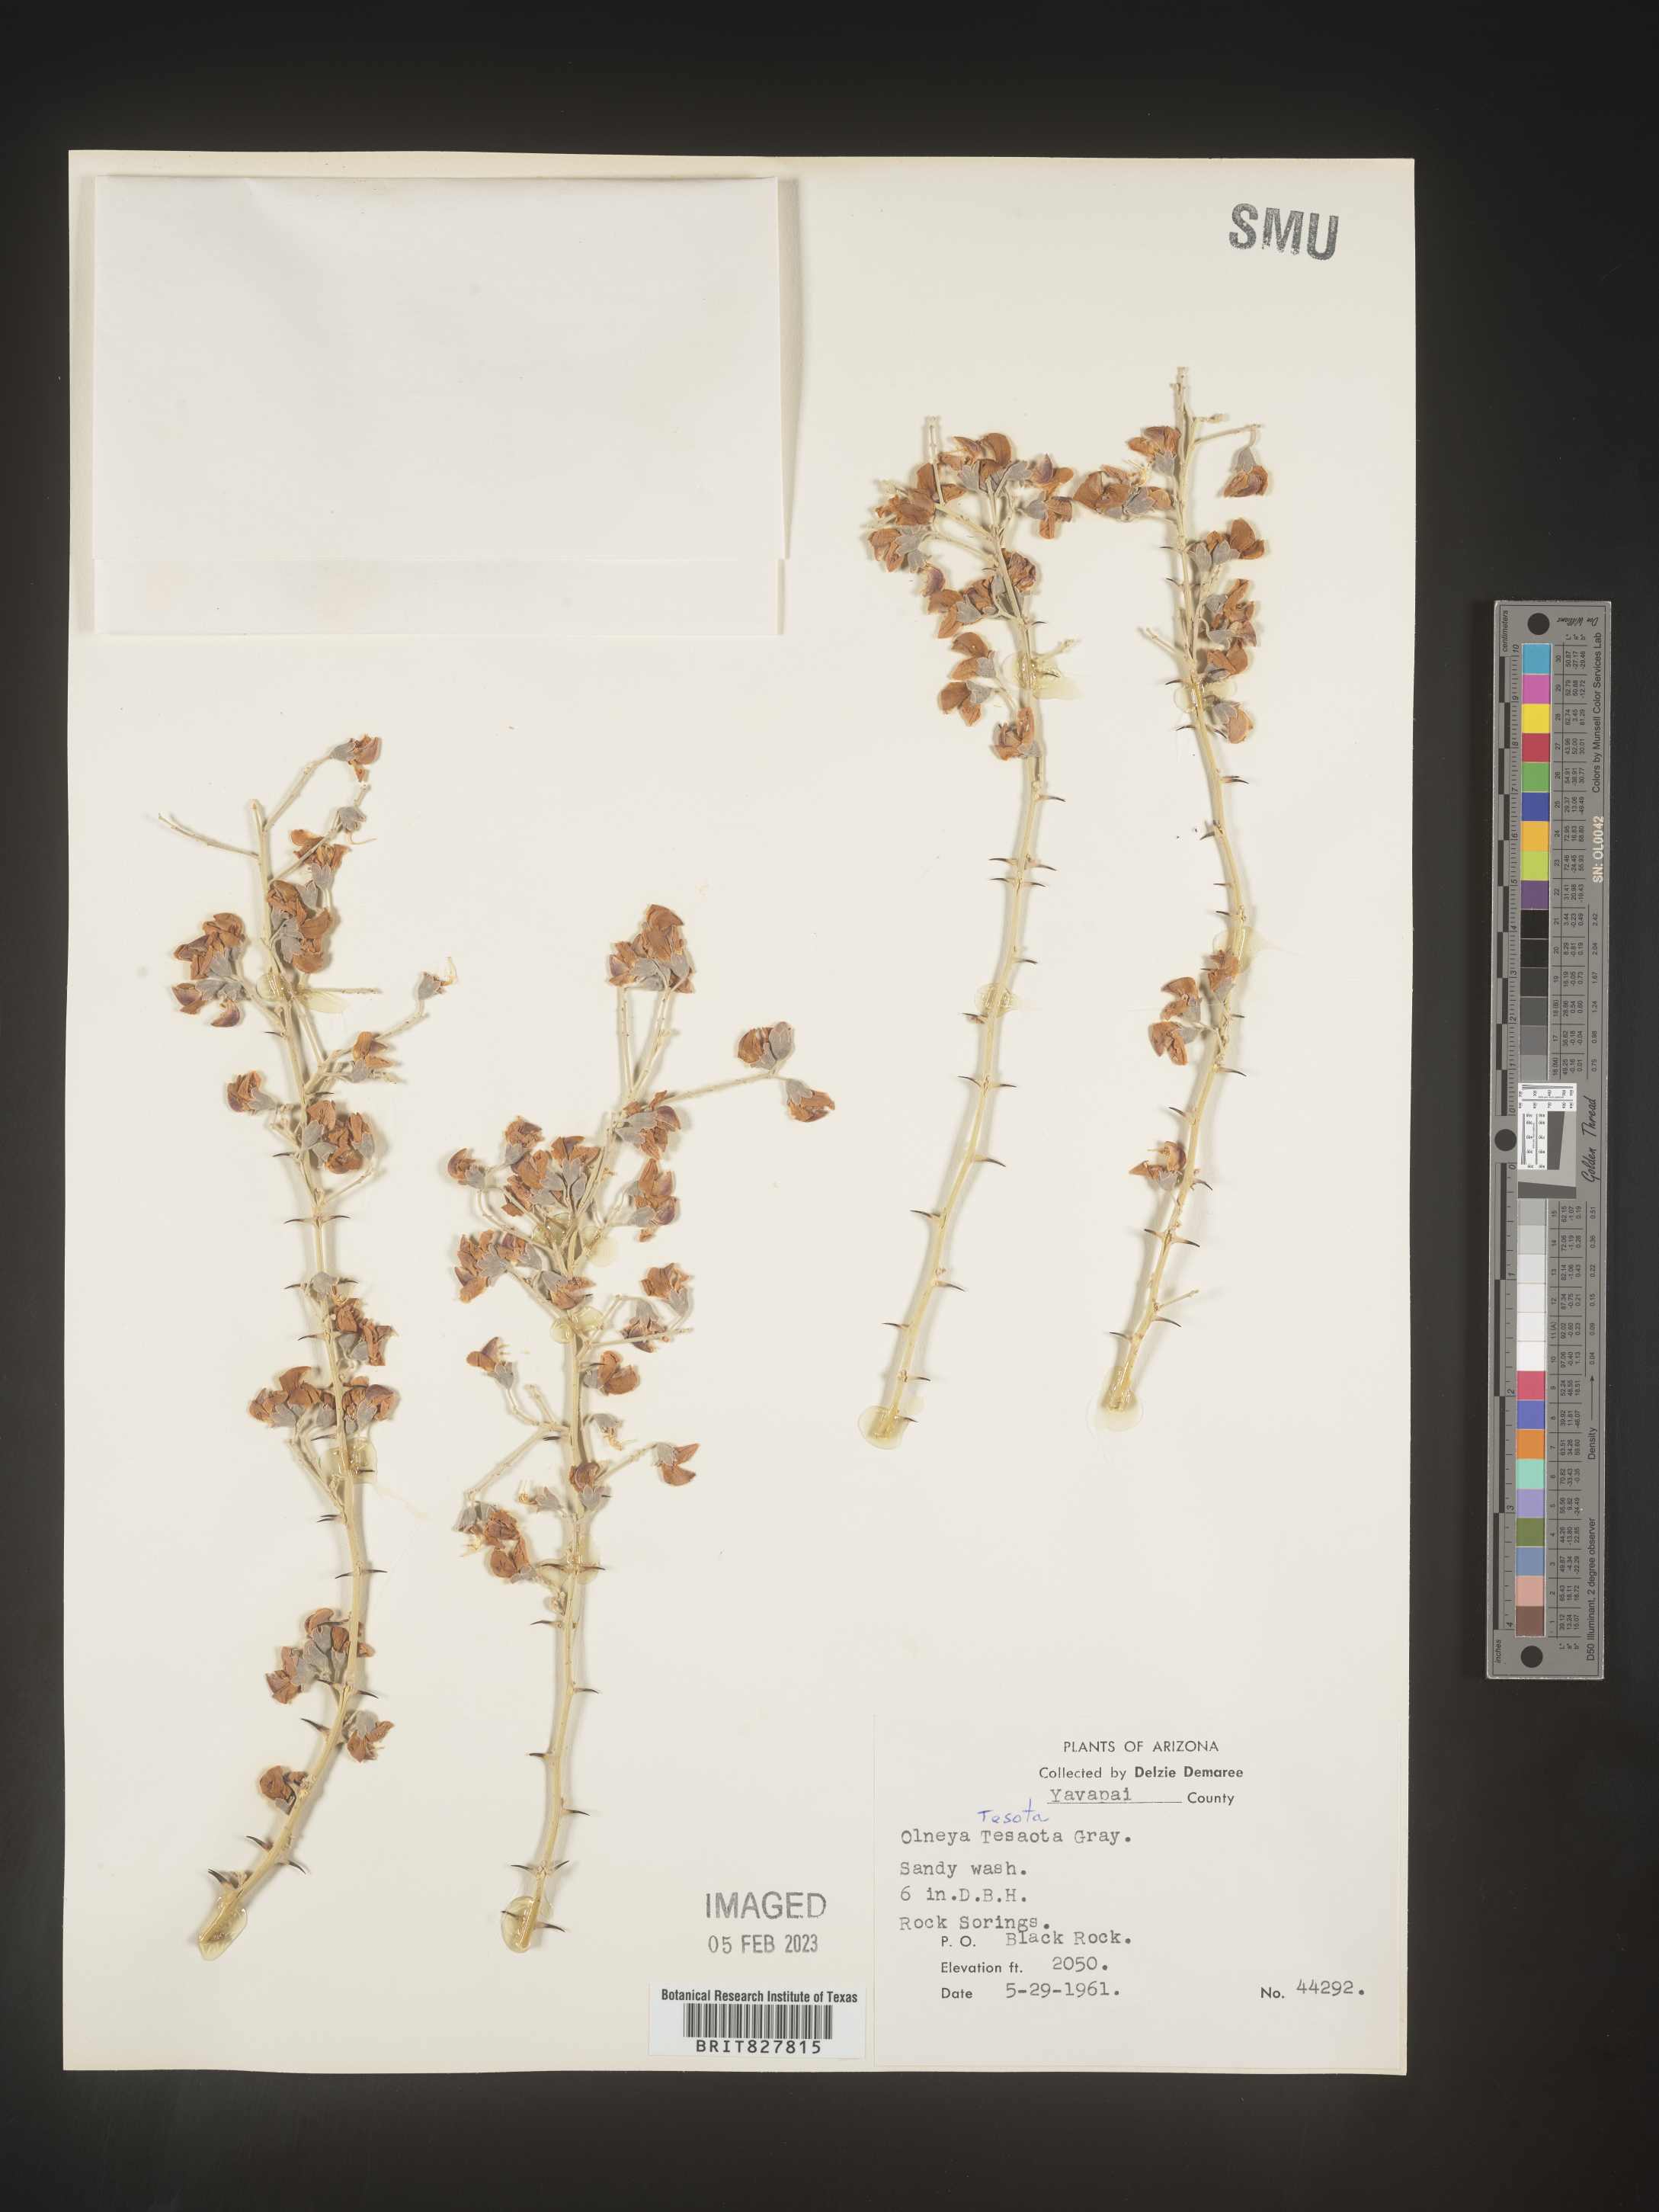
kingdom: Plantae
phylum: Tracheophyta
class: Magnoliopsida
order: Fabales
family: Fabaceae
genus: Olneya
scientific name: Olneya tesota
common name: Desert ironwood
